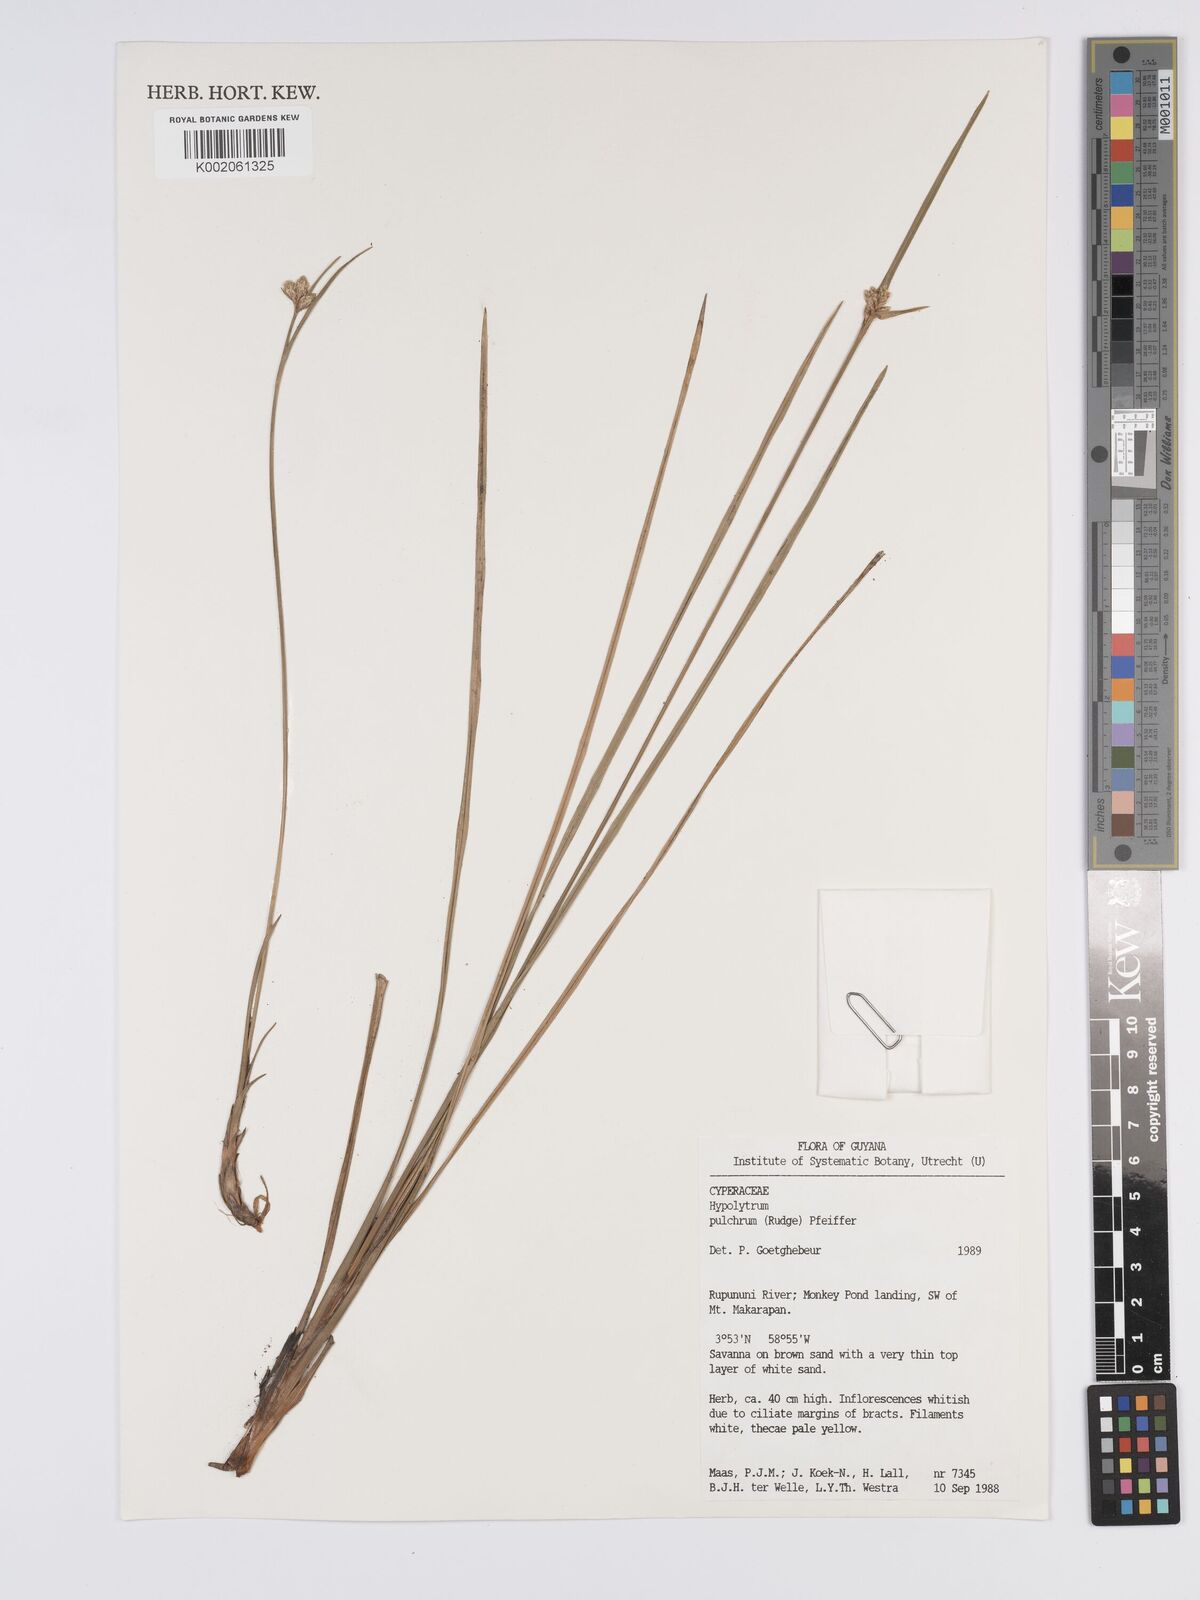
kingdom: Plantae
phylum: Tracheophyta
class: Liliopsida
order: Poales
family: Cyperaceae
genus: Hypolytrum
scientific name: Hypolytrum pulchrum
